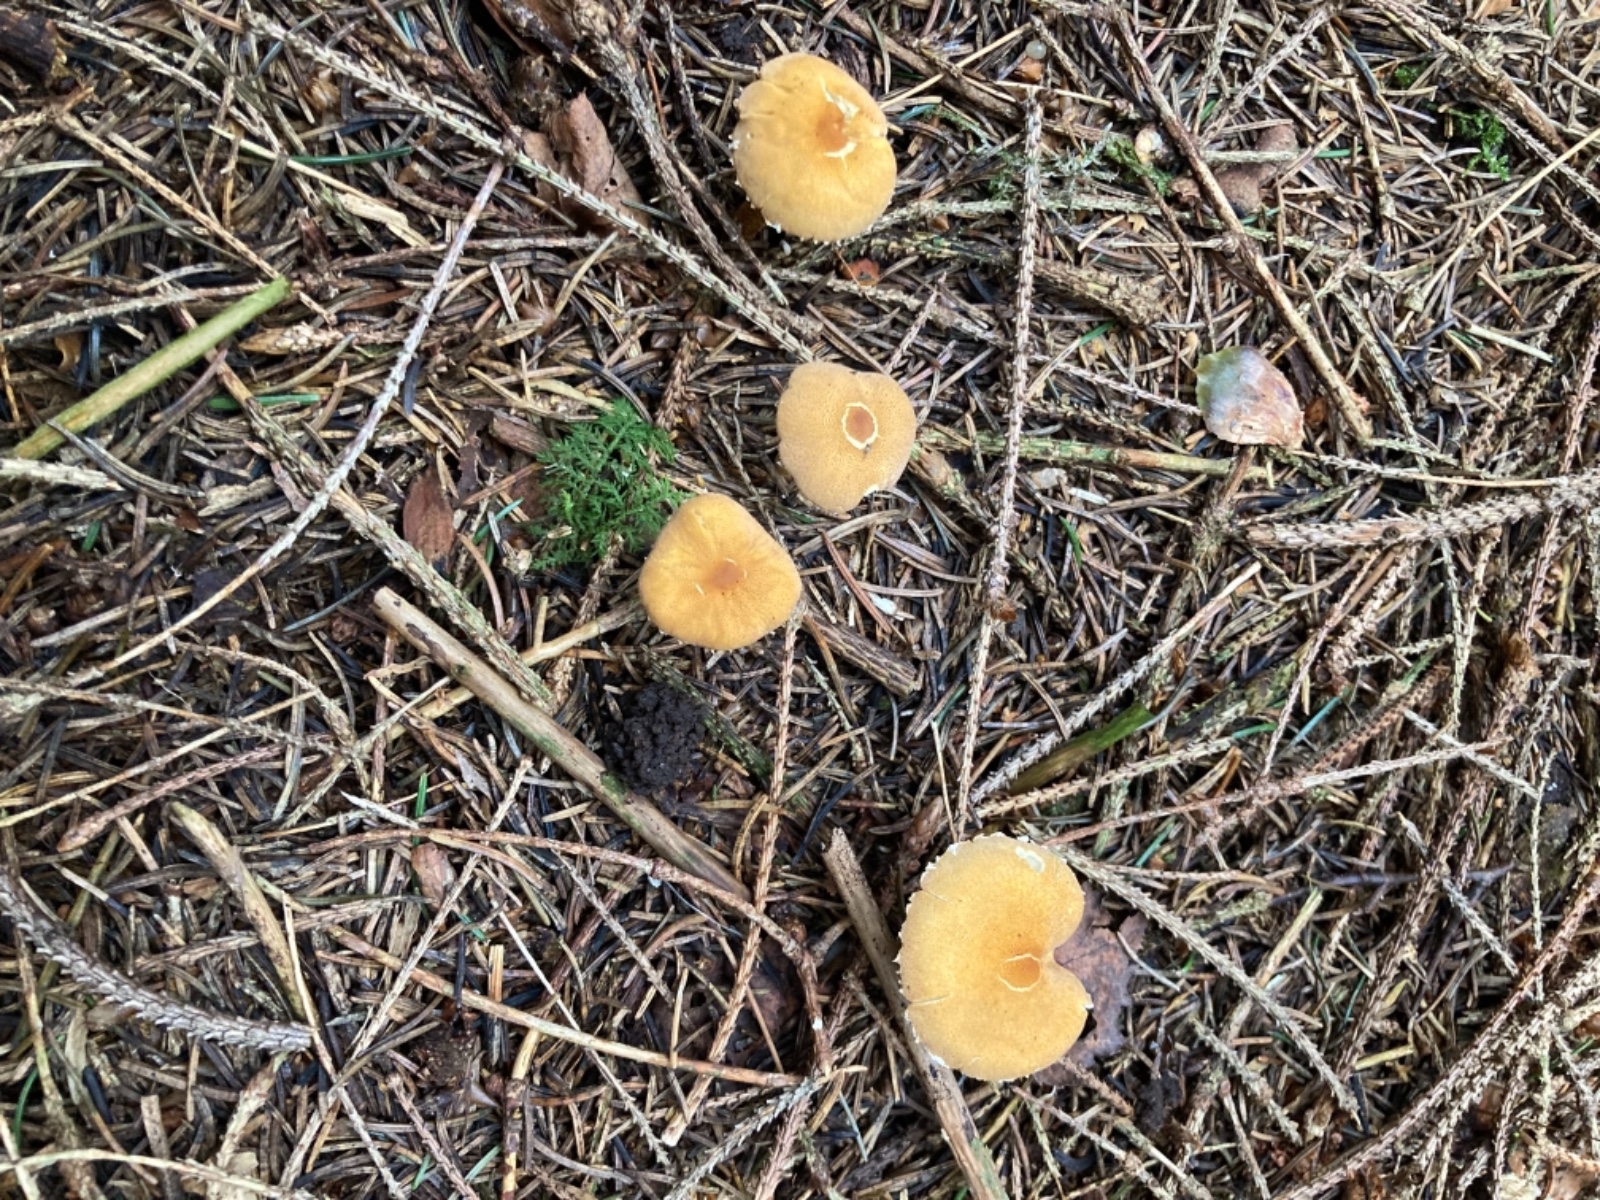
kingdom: Fungi
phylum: Basidiomycota
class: Agaricomycetes
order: Agaricales
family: Tricholomataceae
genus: Cystoderma
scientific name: Cystoderma amianthinum
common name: okkergul grynhat
